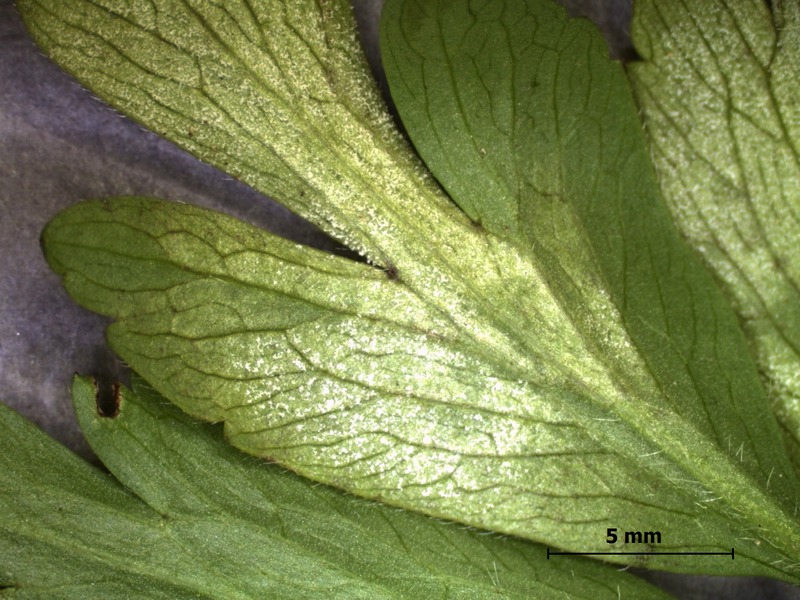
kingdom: Chromista
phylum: Oomycota
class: Peronosporea
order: Peronosporales
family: Peronosporaceae
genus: Plasmoverna
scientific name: Plasmoverna pygmaea
